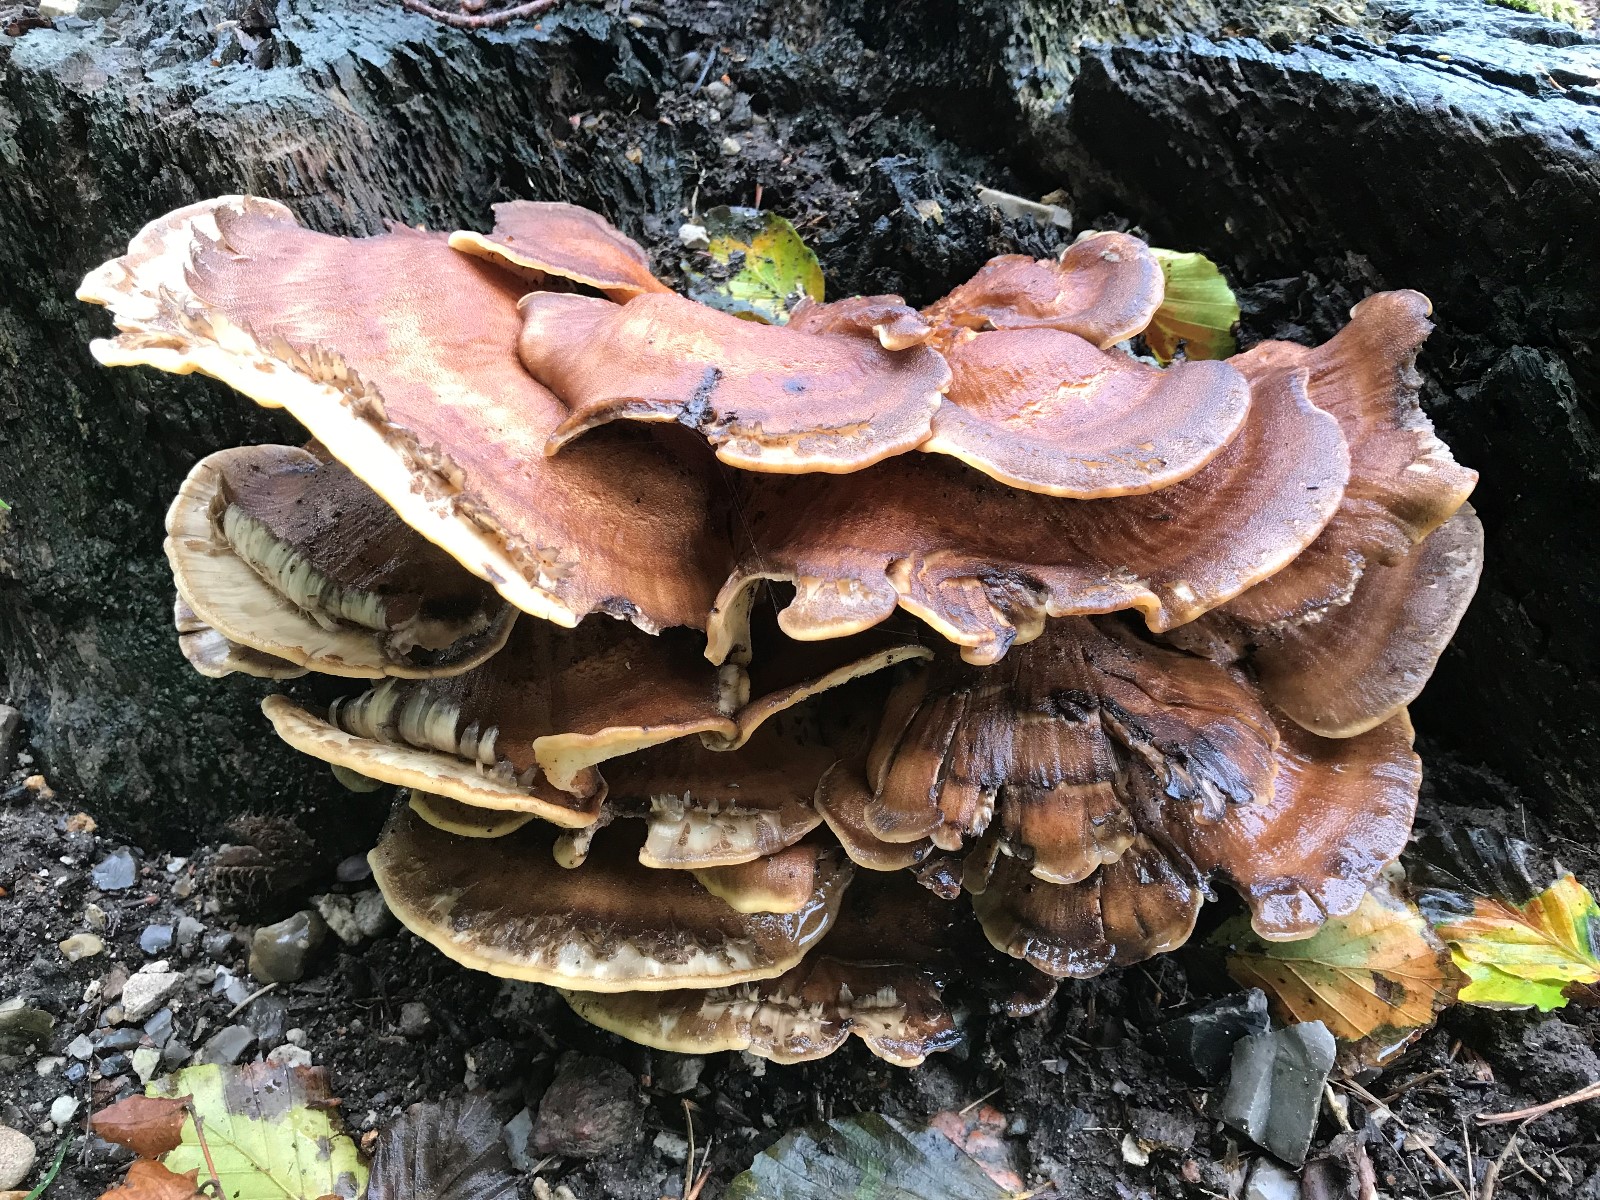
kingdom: Fungi
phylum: Basidiomycota
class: Agaricomycetes
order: Polyporales
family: Meripilaceae
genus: Meripilus
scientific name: Meripilus giganteus
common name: kæmpeporesvamp
